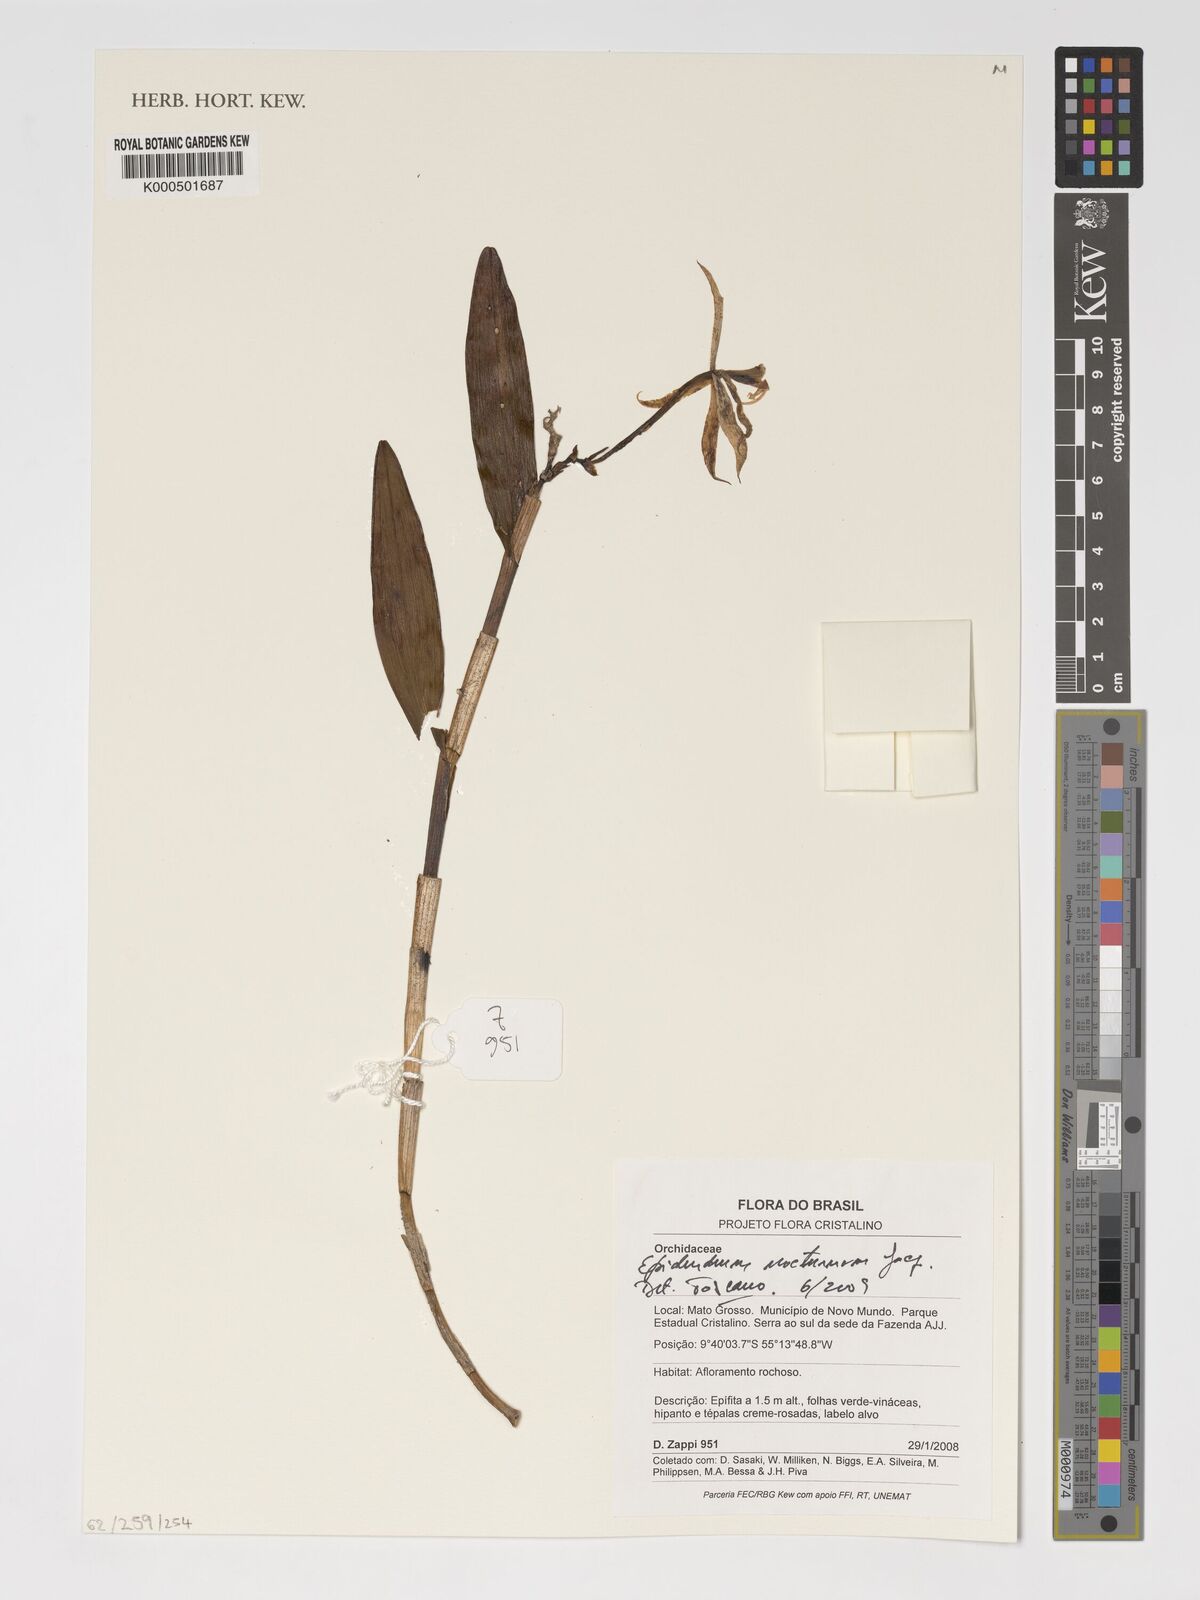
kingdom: Plantae
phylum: Tracheophyta
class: Liliopsida
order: Asparagales
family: Orchidaceae
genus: Epidendrum
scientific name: Epidendrum nocturnum
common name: Night scented orchid
